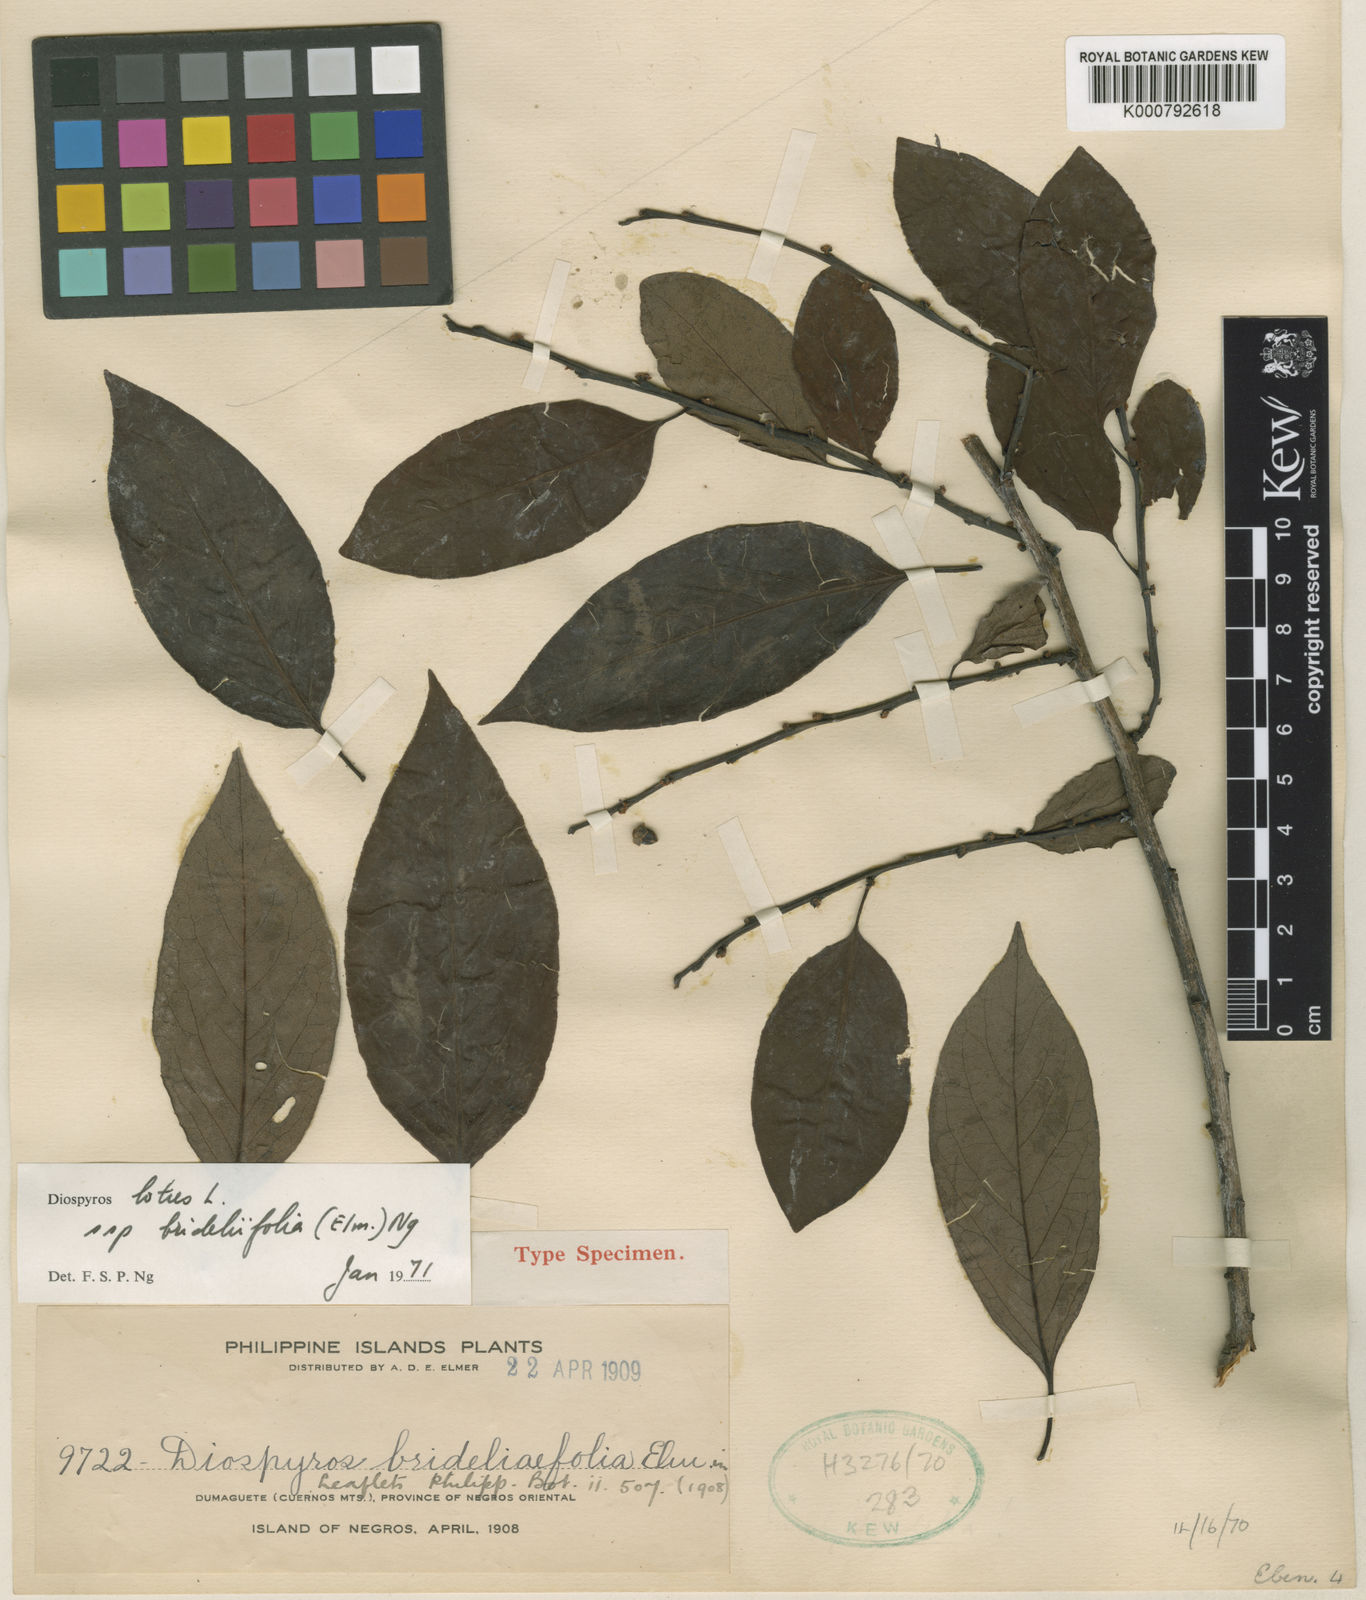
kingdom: Plantae
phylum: Tracheophyta
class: Magnoliopsida
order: Ericales
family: Ebenaceae
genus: Diospyros
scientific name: Diospyros brideliifolia
